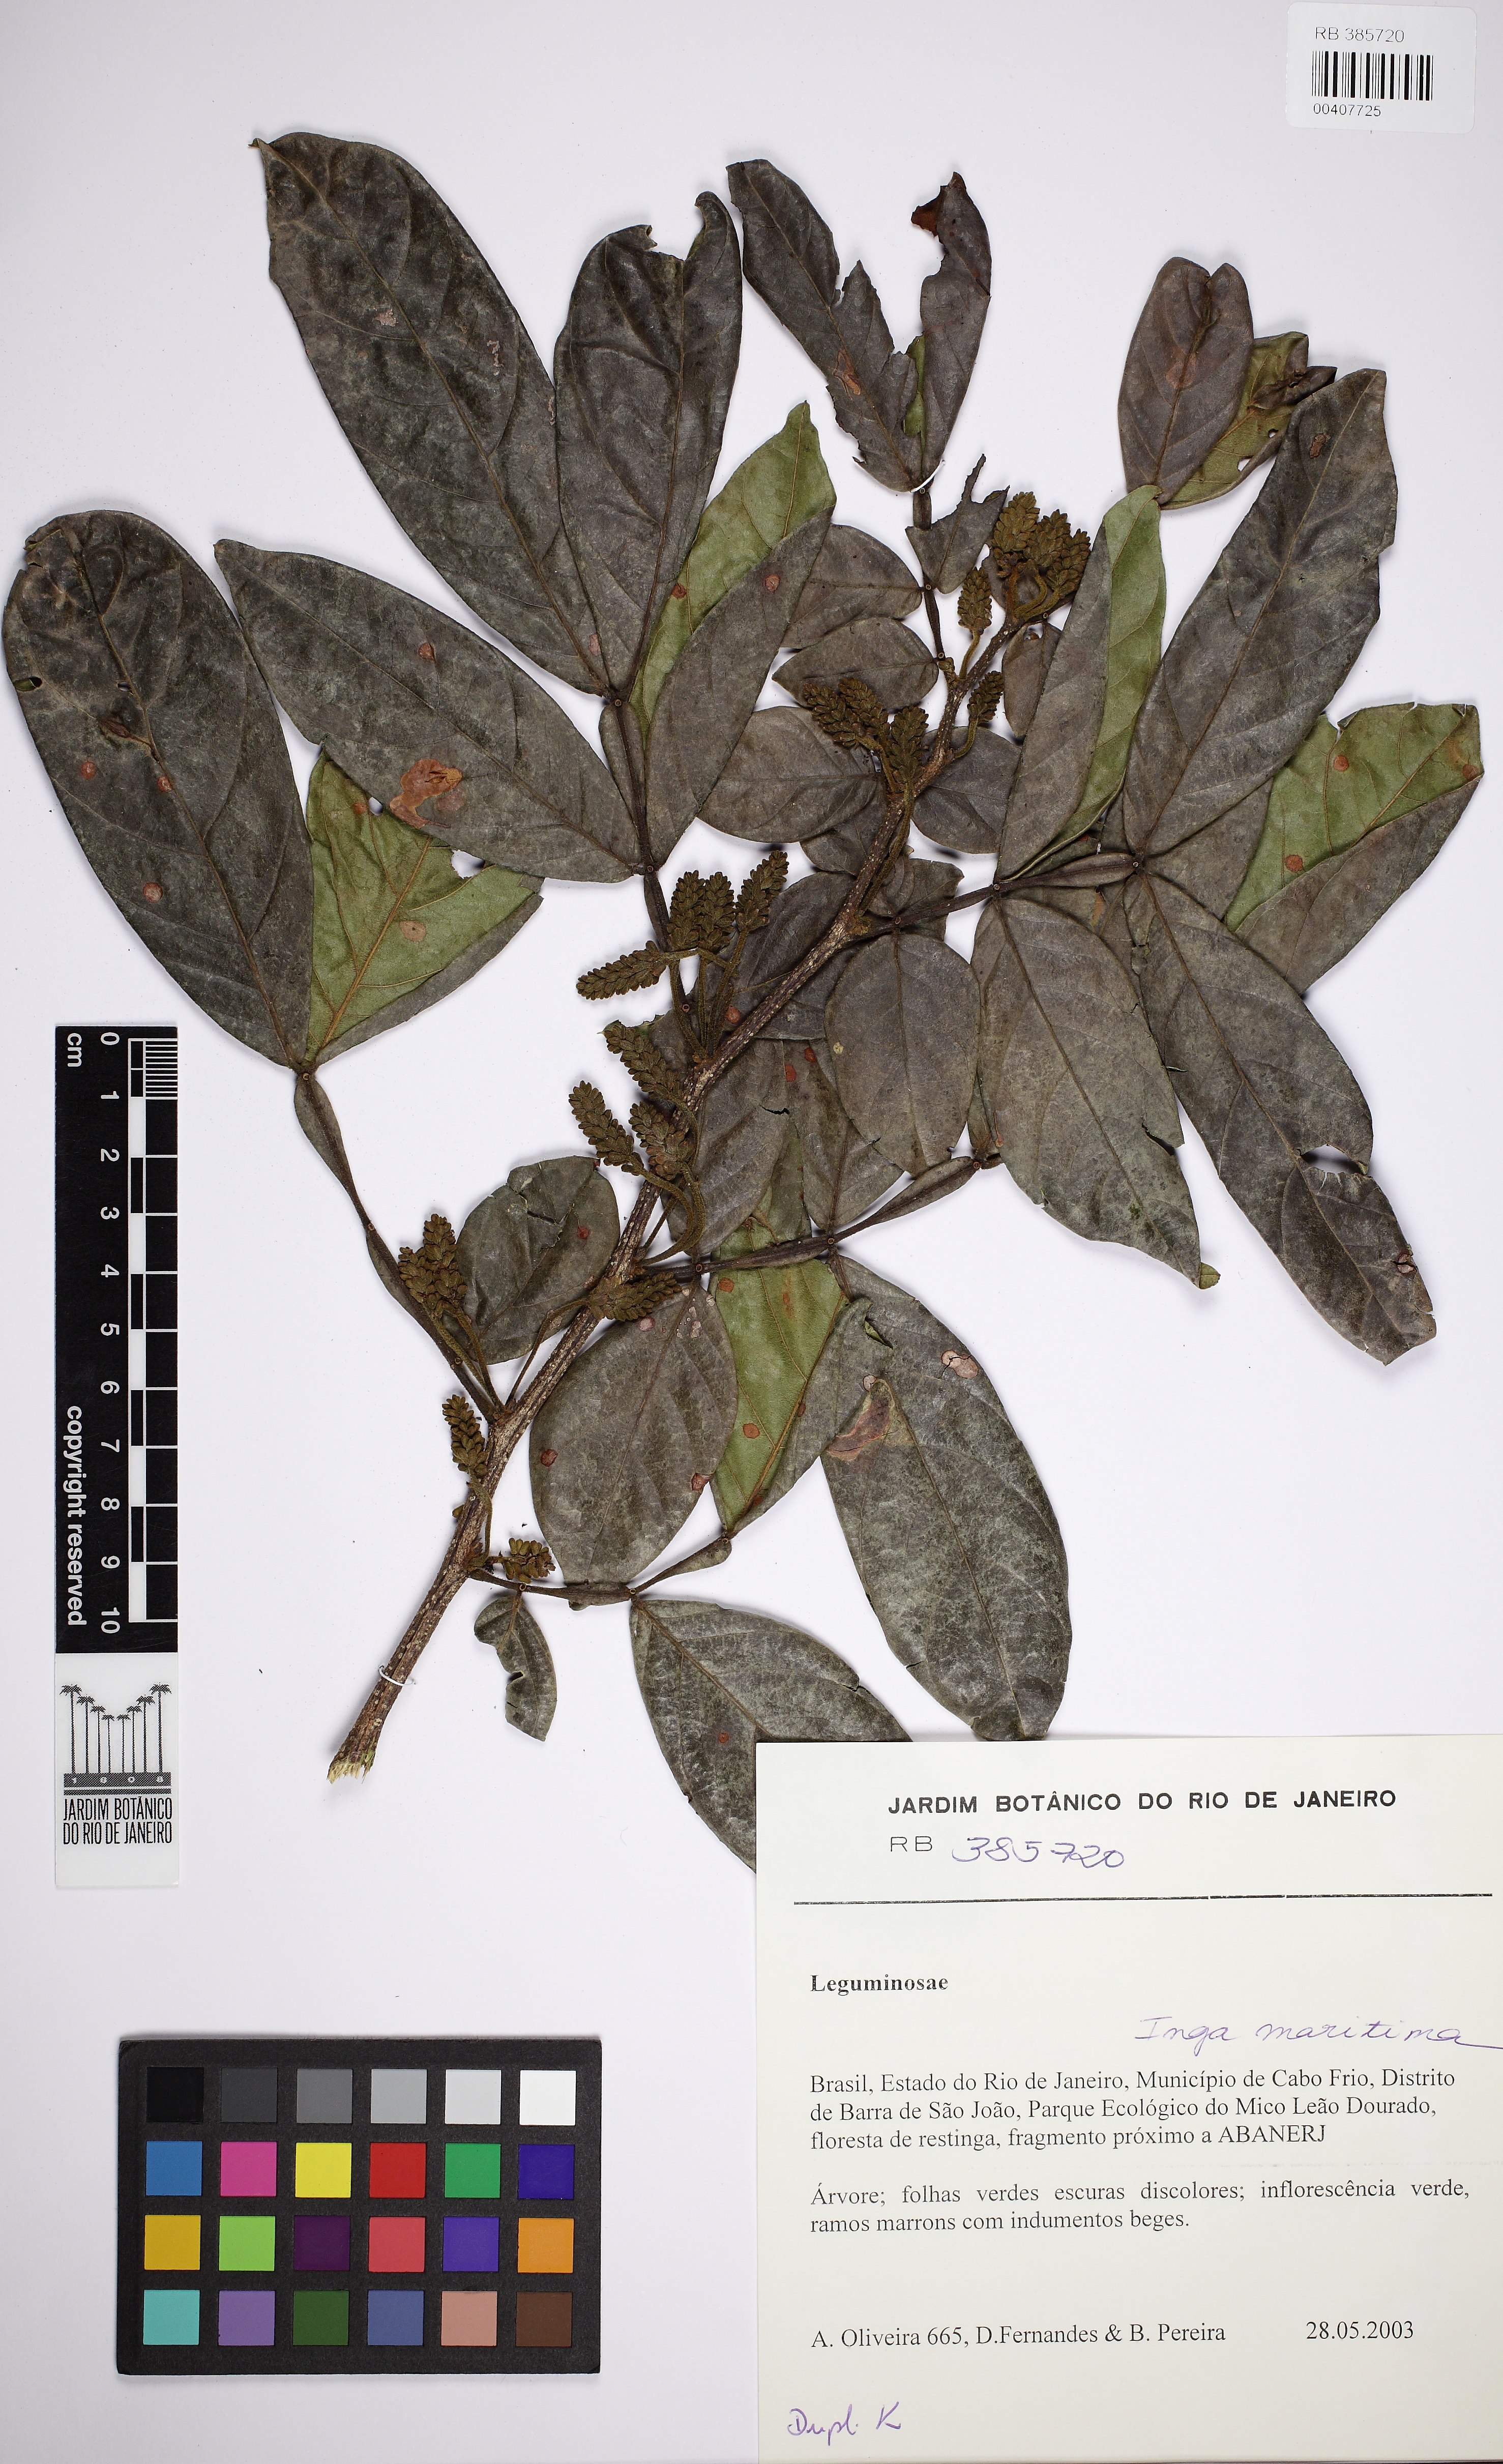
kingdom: Plantae
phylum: Tracheophyta
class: Magnoliopsida
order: Fabales
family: Fabaceae
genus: Inga
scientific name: Inga maritima
